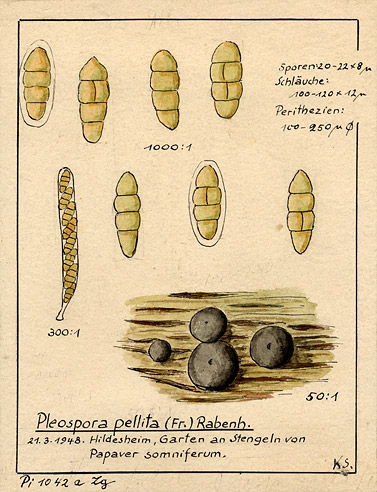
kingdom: Fungi
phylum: Ascomycota
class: Dothideomycetes
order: Pleosporales
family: Pleosporaceae
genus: Pyrenophora
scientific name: Pyrenophora pellita
